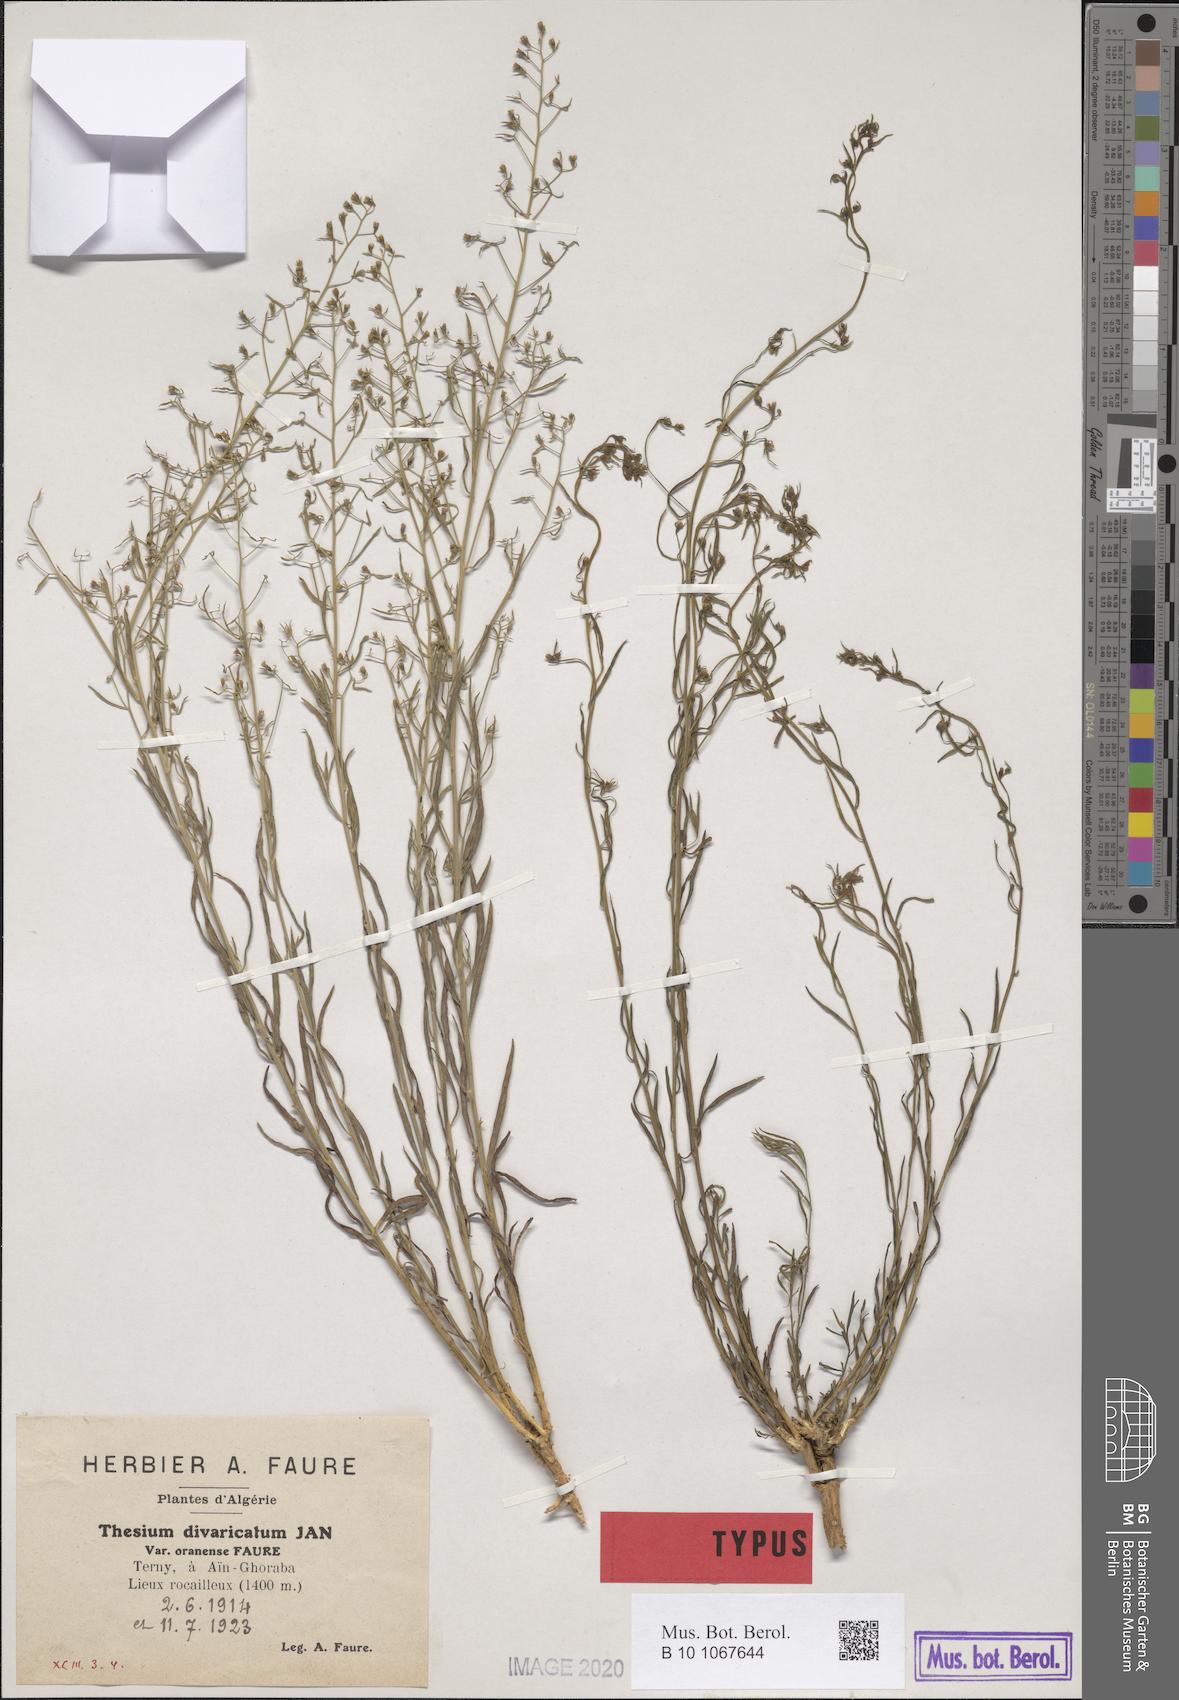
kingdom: Plantae
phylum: Tracheophyta
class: Magnoliopsida
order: Santalales
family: Thesiaceae
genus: Thesium
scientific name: Thesium divaricatum
